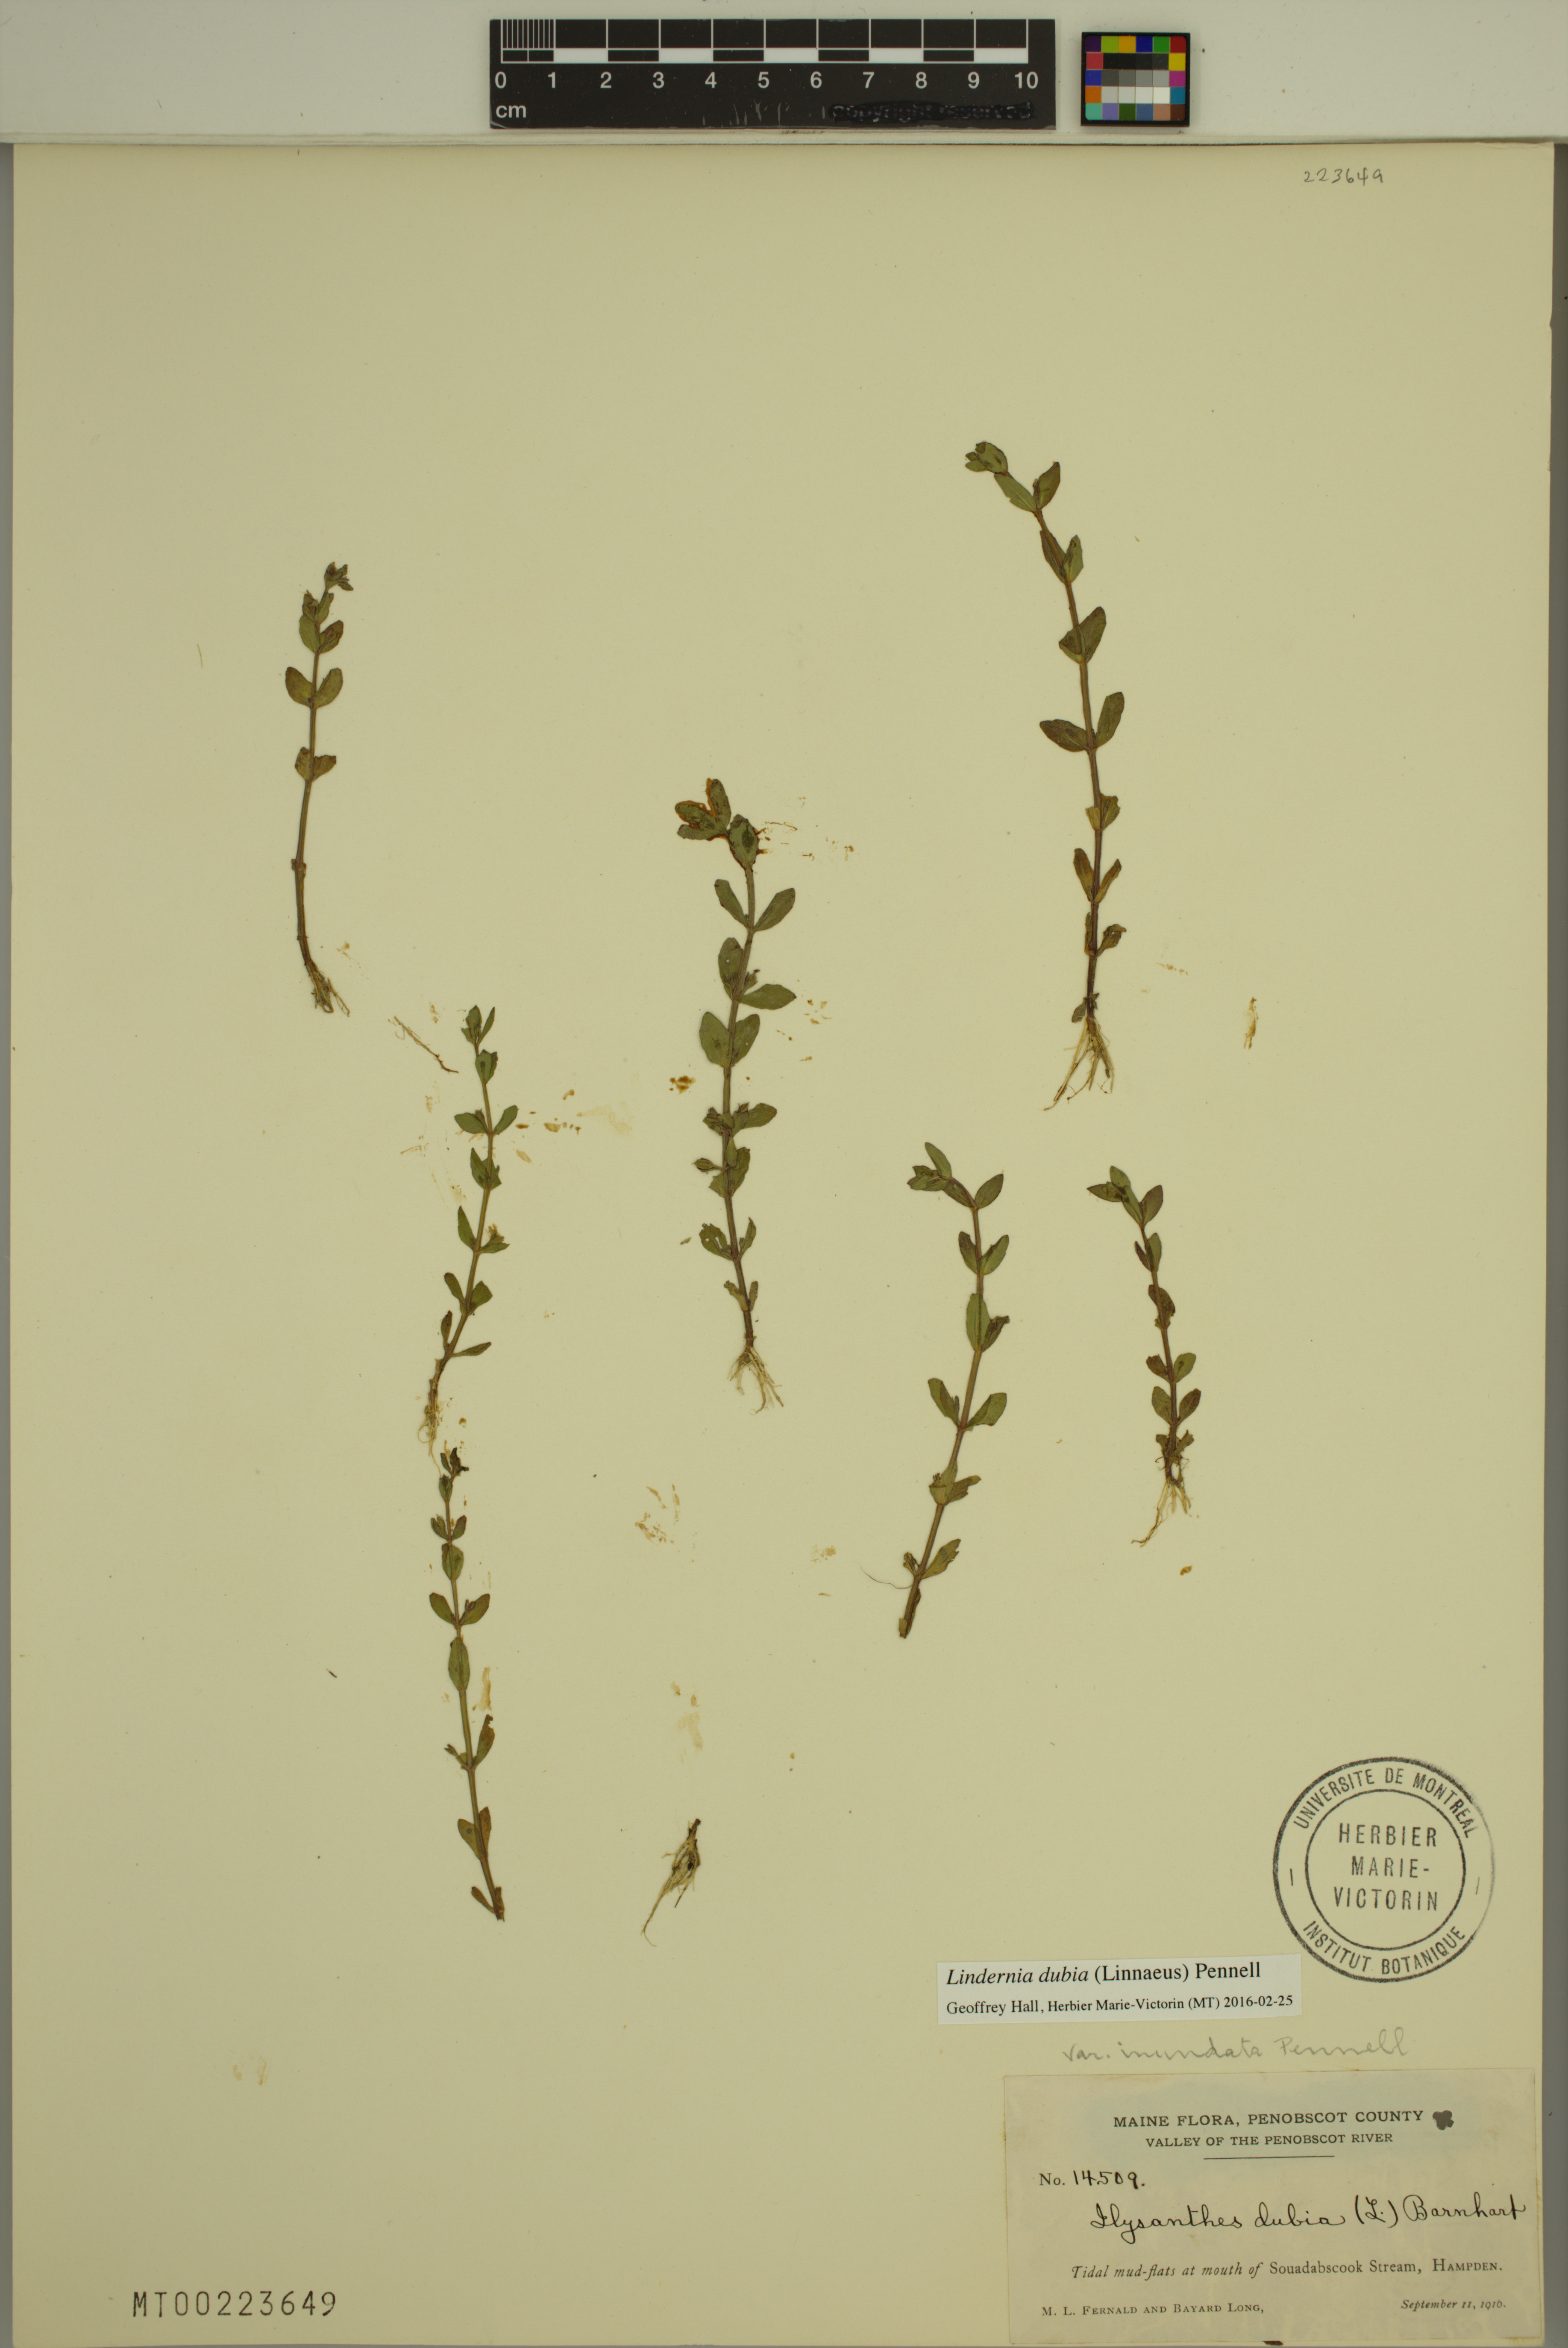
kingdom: Plantae
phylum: Tracheophyta
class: Magnoliopsida
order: Lamiales
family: Linderniaceae
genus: Lindernia
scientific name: Lindernia dubia
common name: Annual false pimpernel
